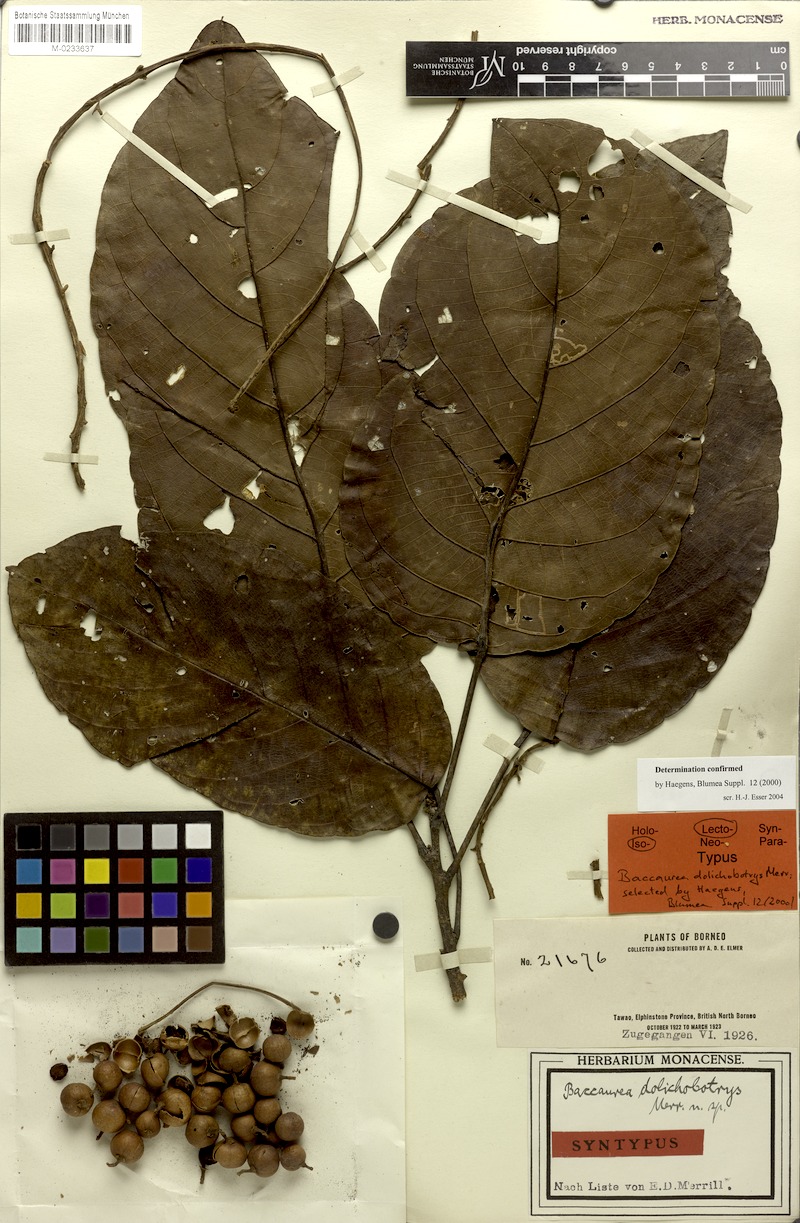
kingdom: Plantae
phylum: Tracheophyta
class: Magnoliopsida
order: Malpighiales
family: Phyllanthaceae
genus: Baccaurea
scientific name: Baccaurea dolichobotrys
